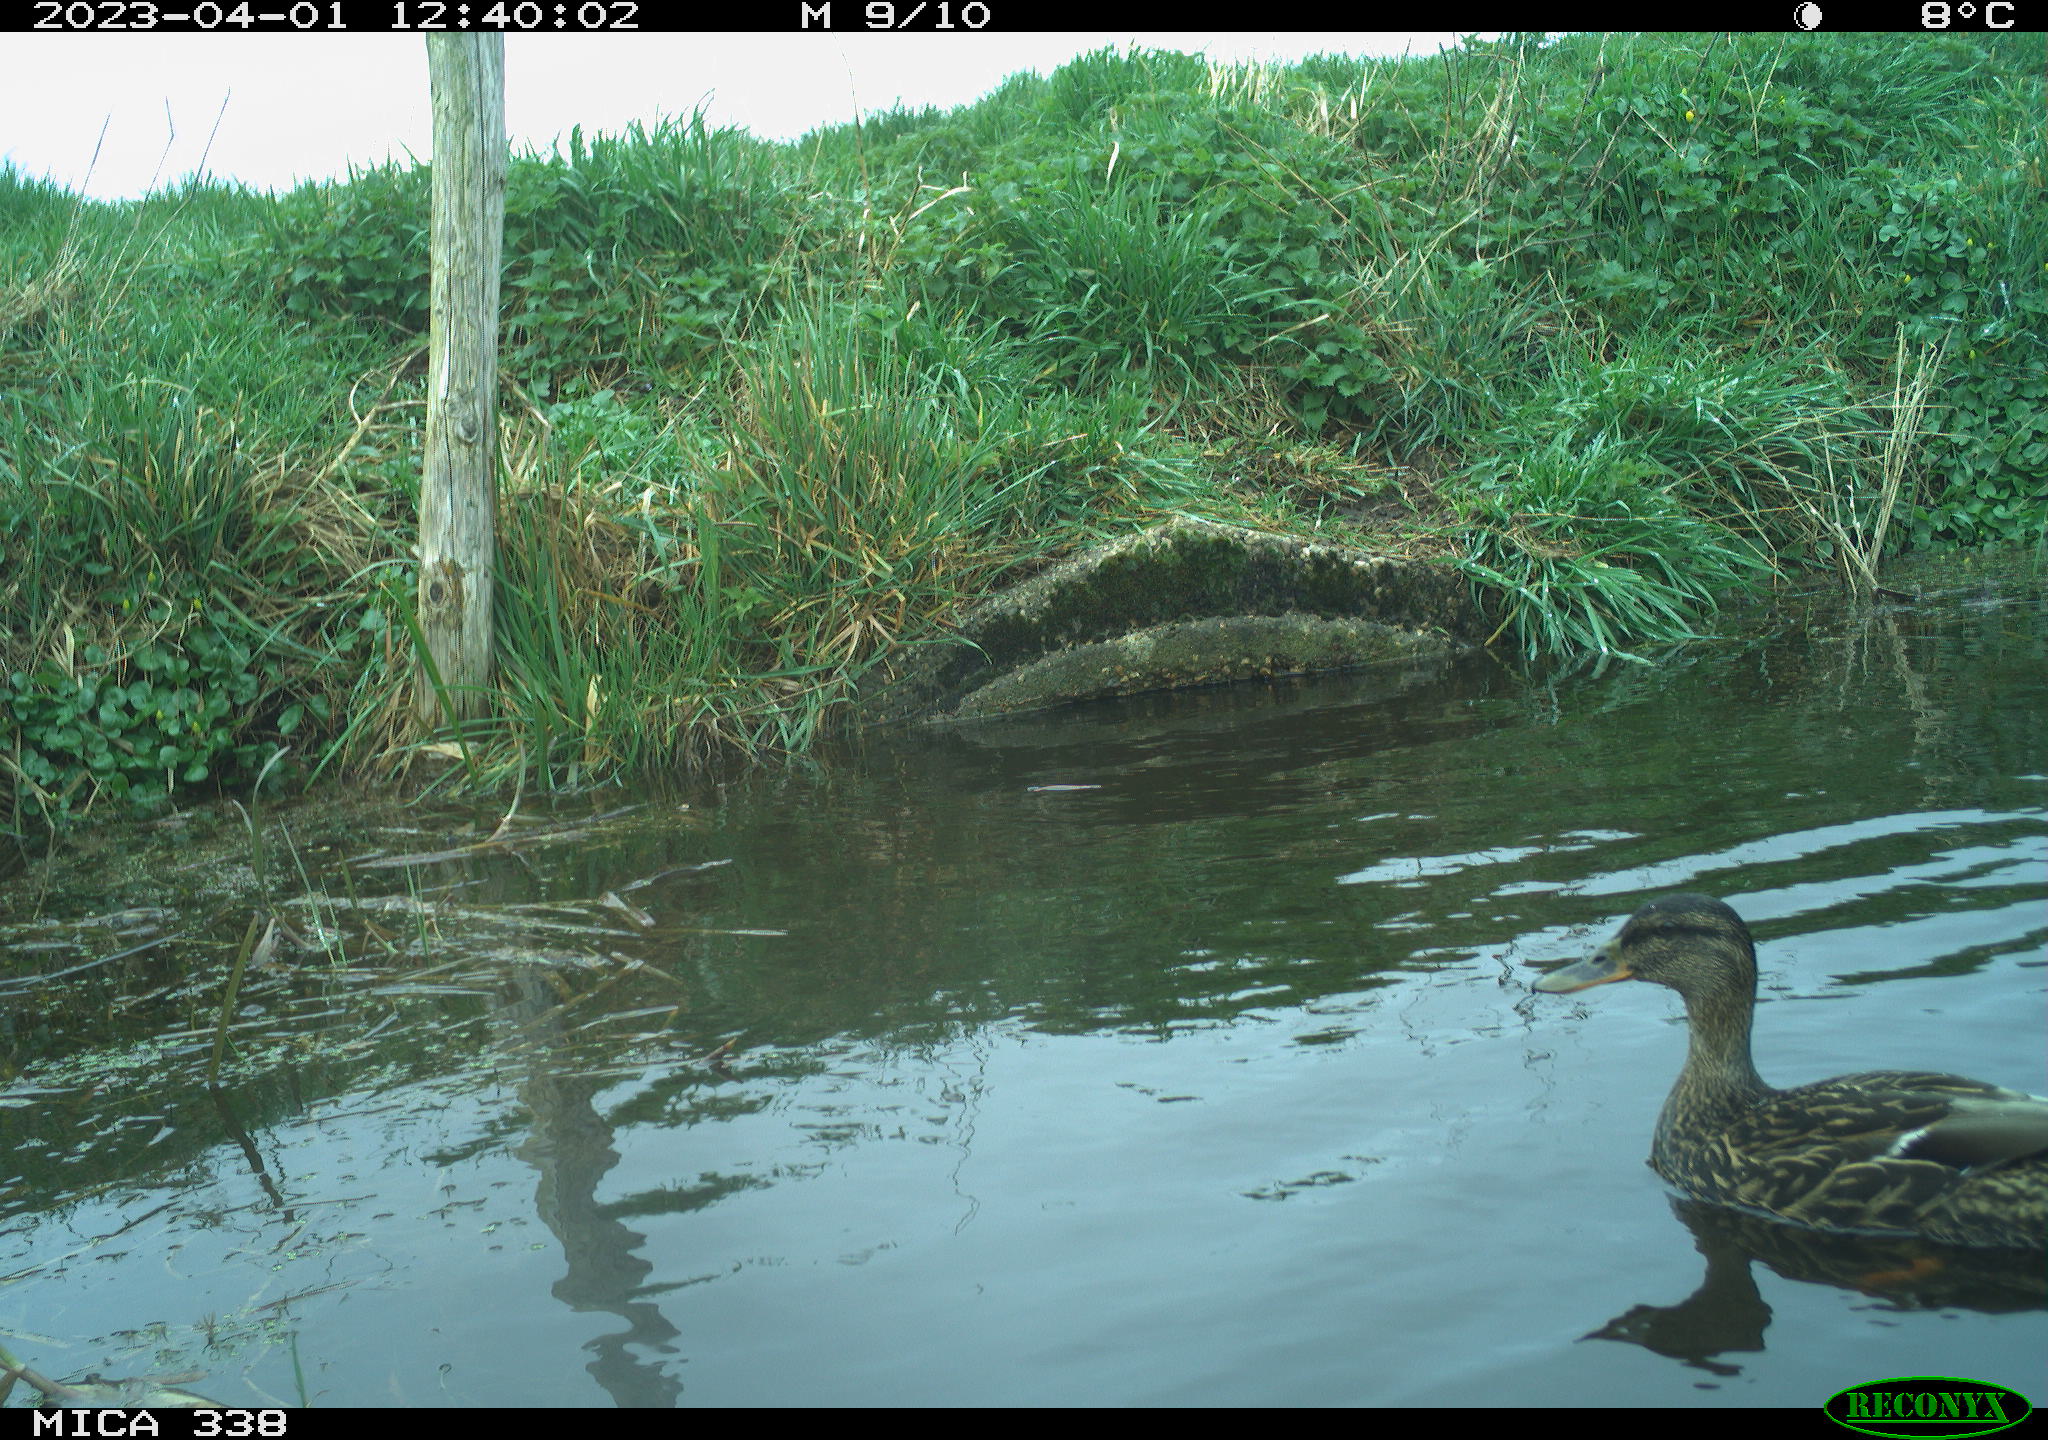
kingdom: Animalia
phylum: Chordata
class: Aves
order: Anseriformes
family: Anatidae
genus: Anas
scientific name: Anas platyrhynchos
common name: Mallard
